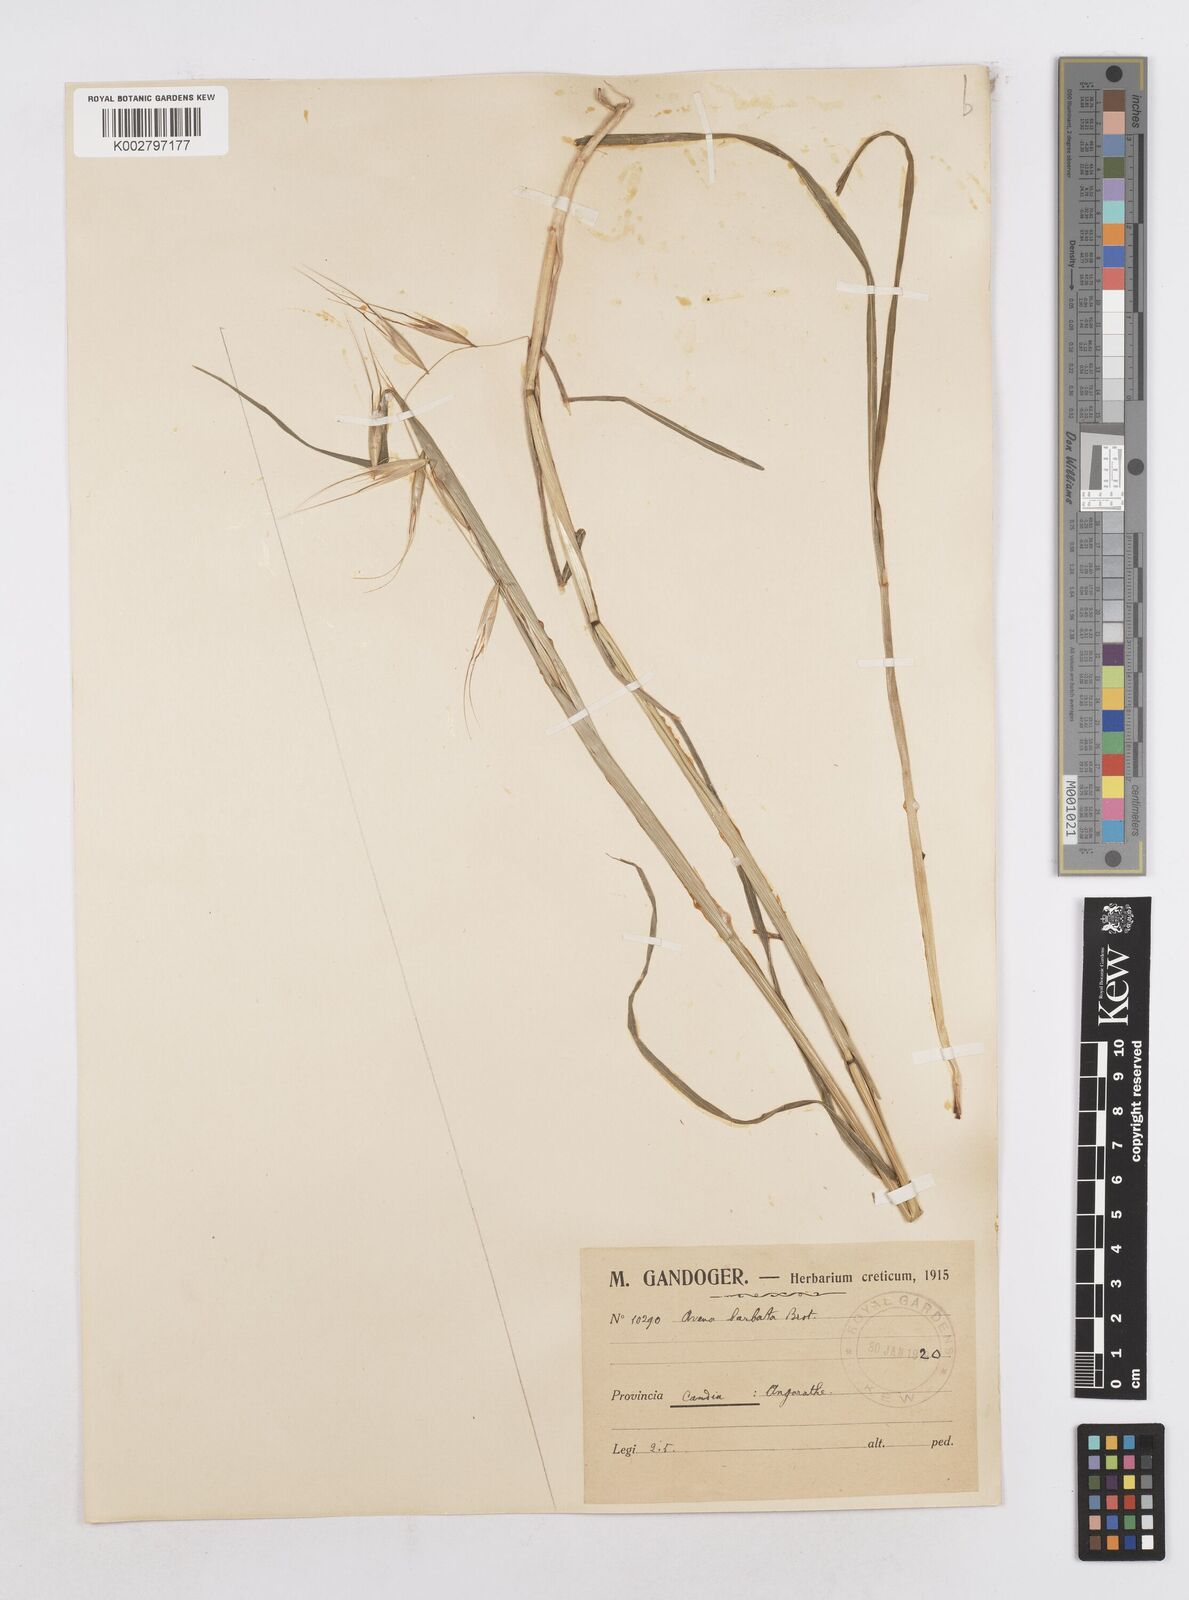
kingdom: Plantae
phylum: Tracheophyta
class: Liliopsida
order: Poales
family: Poaceae
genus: Avena
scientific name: Avena
